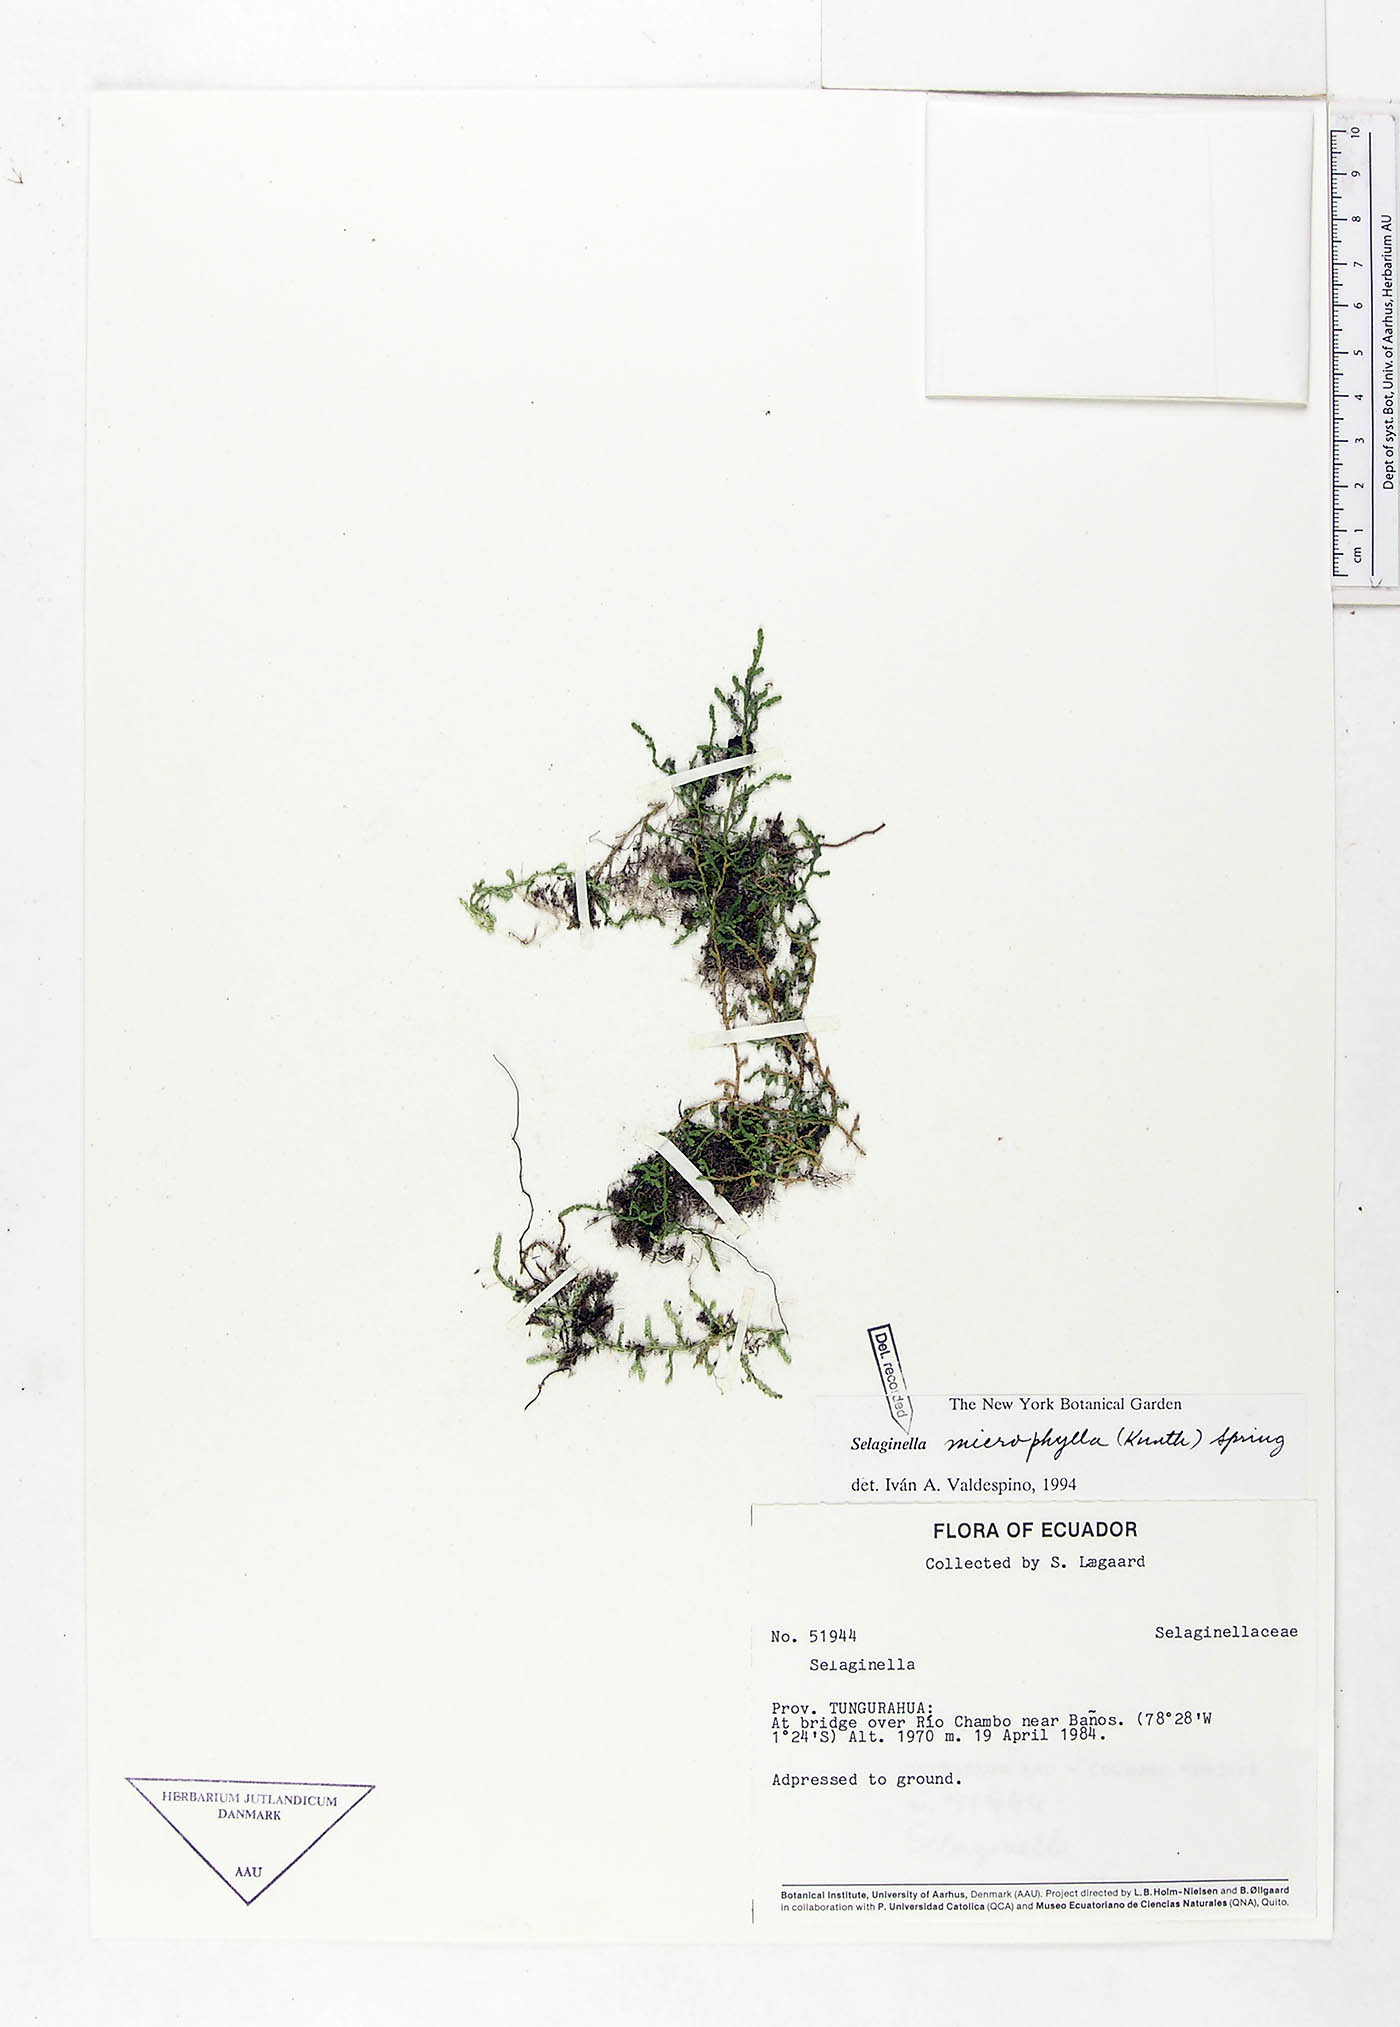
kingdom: Plantae
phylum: Tracheophyta
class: Lycopodiopsida
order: Selaginellales
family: Selaginellaceae
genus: Selaginella
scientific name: Selaginella microphylla
